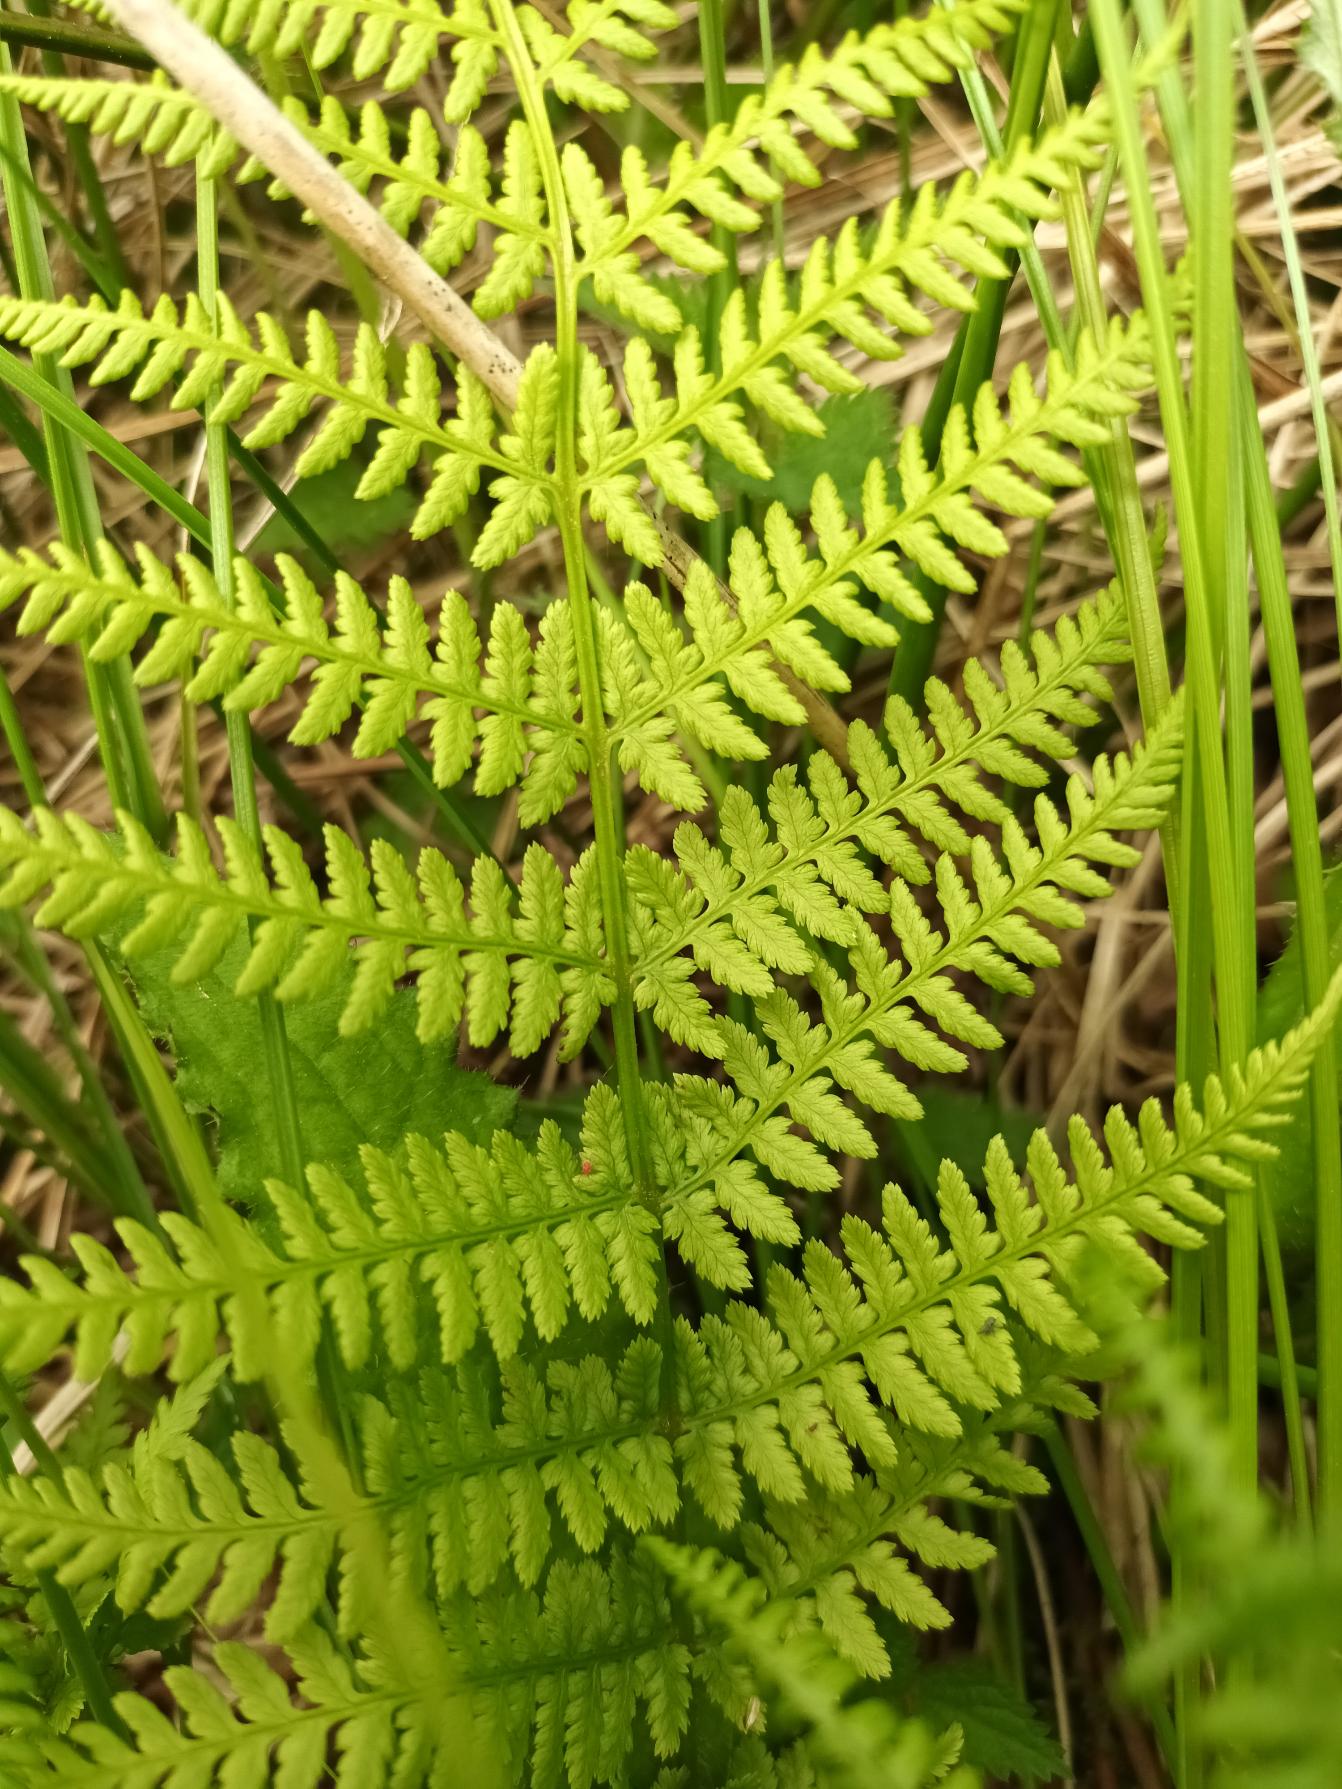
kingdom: Plantae
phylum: Tracheophyta
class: Polypodiopsida
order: Polypodiales
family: Athyriaceae
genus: Athyrium
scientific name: Athyrium filix-femina
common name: Fjerbregne
